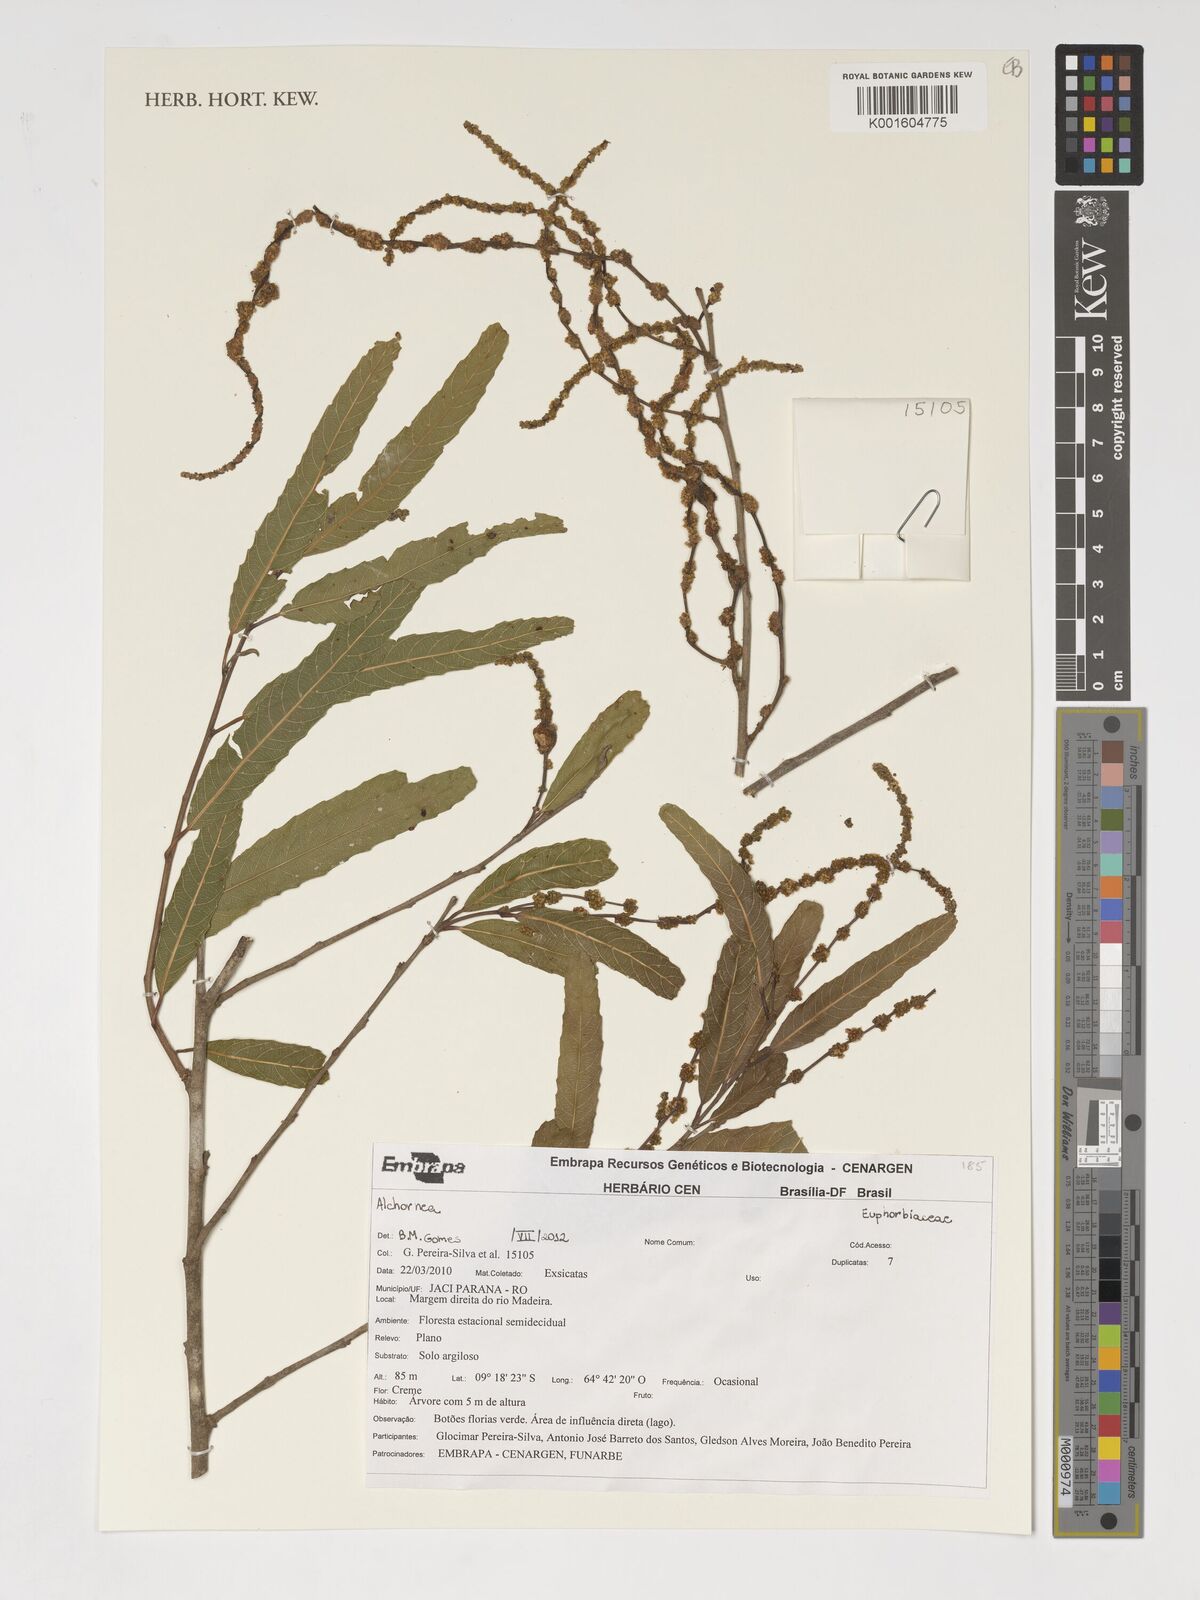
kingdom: Plantae
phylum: Tracheophyta
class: Magnoliopsida
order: Malpighiales
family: Euphorbiaceae
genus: Alchornea
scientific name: Alchornea
